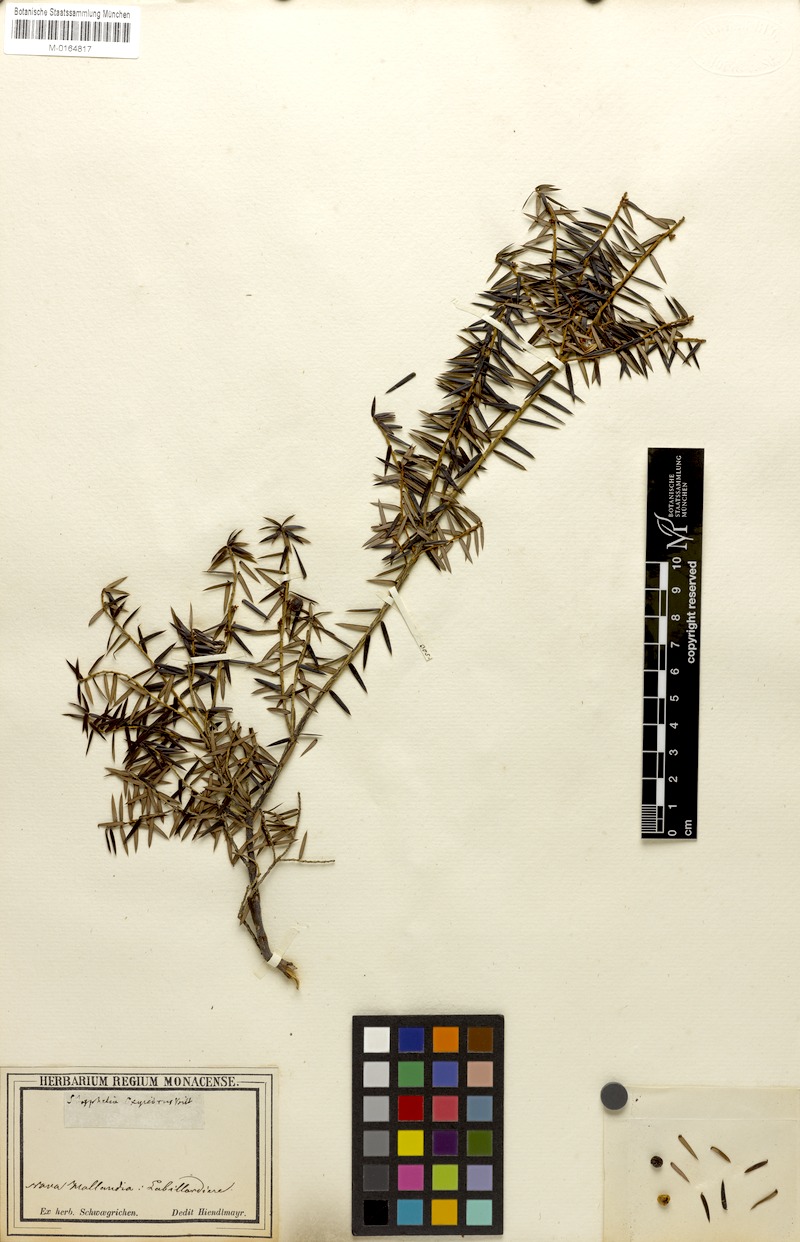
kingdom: Plantae
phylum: Tracheophyta
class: Magnoliopsida
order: Ericales
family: Ericaceae
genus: Leptecophylla
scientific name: Leptecophylla oxycedrus
